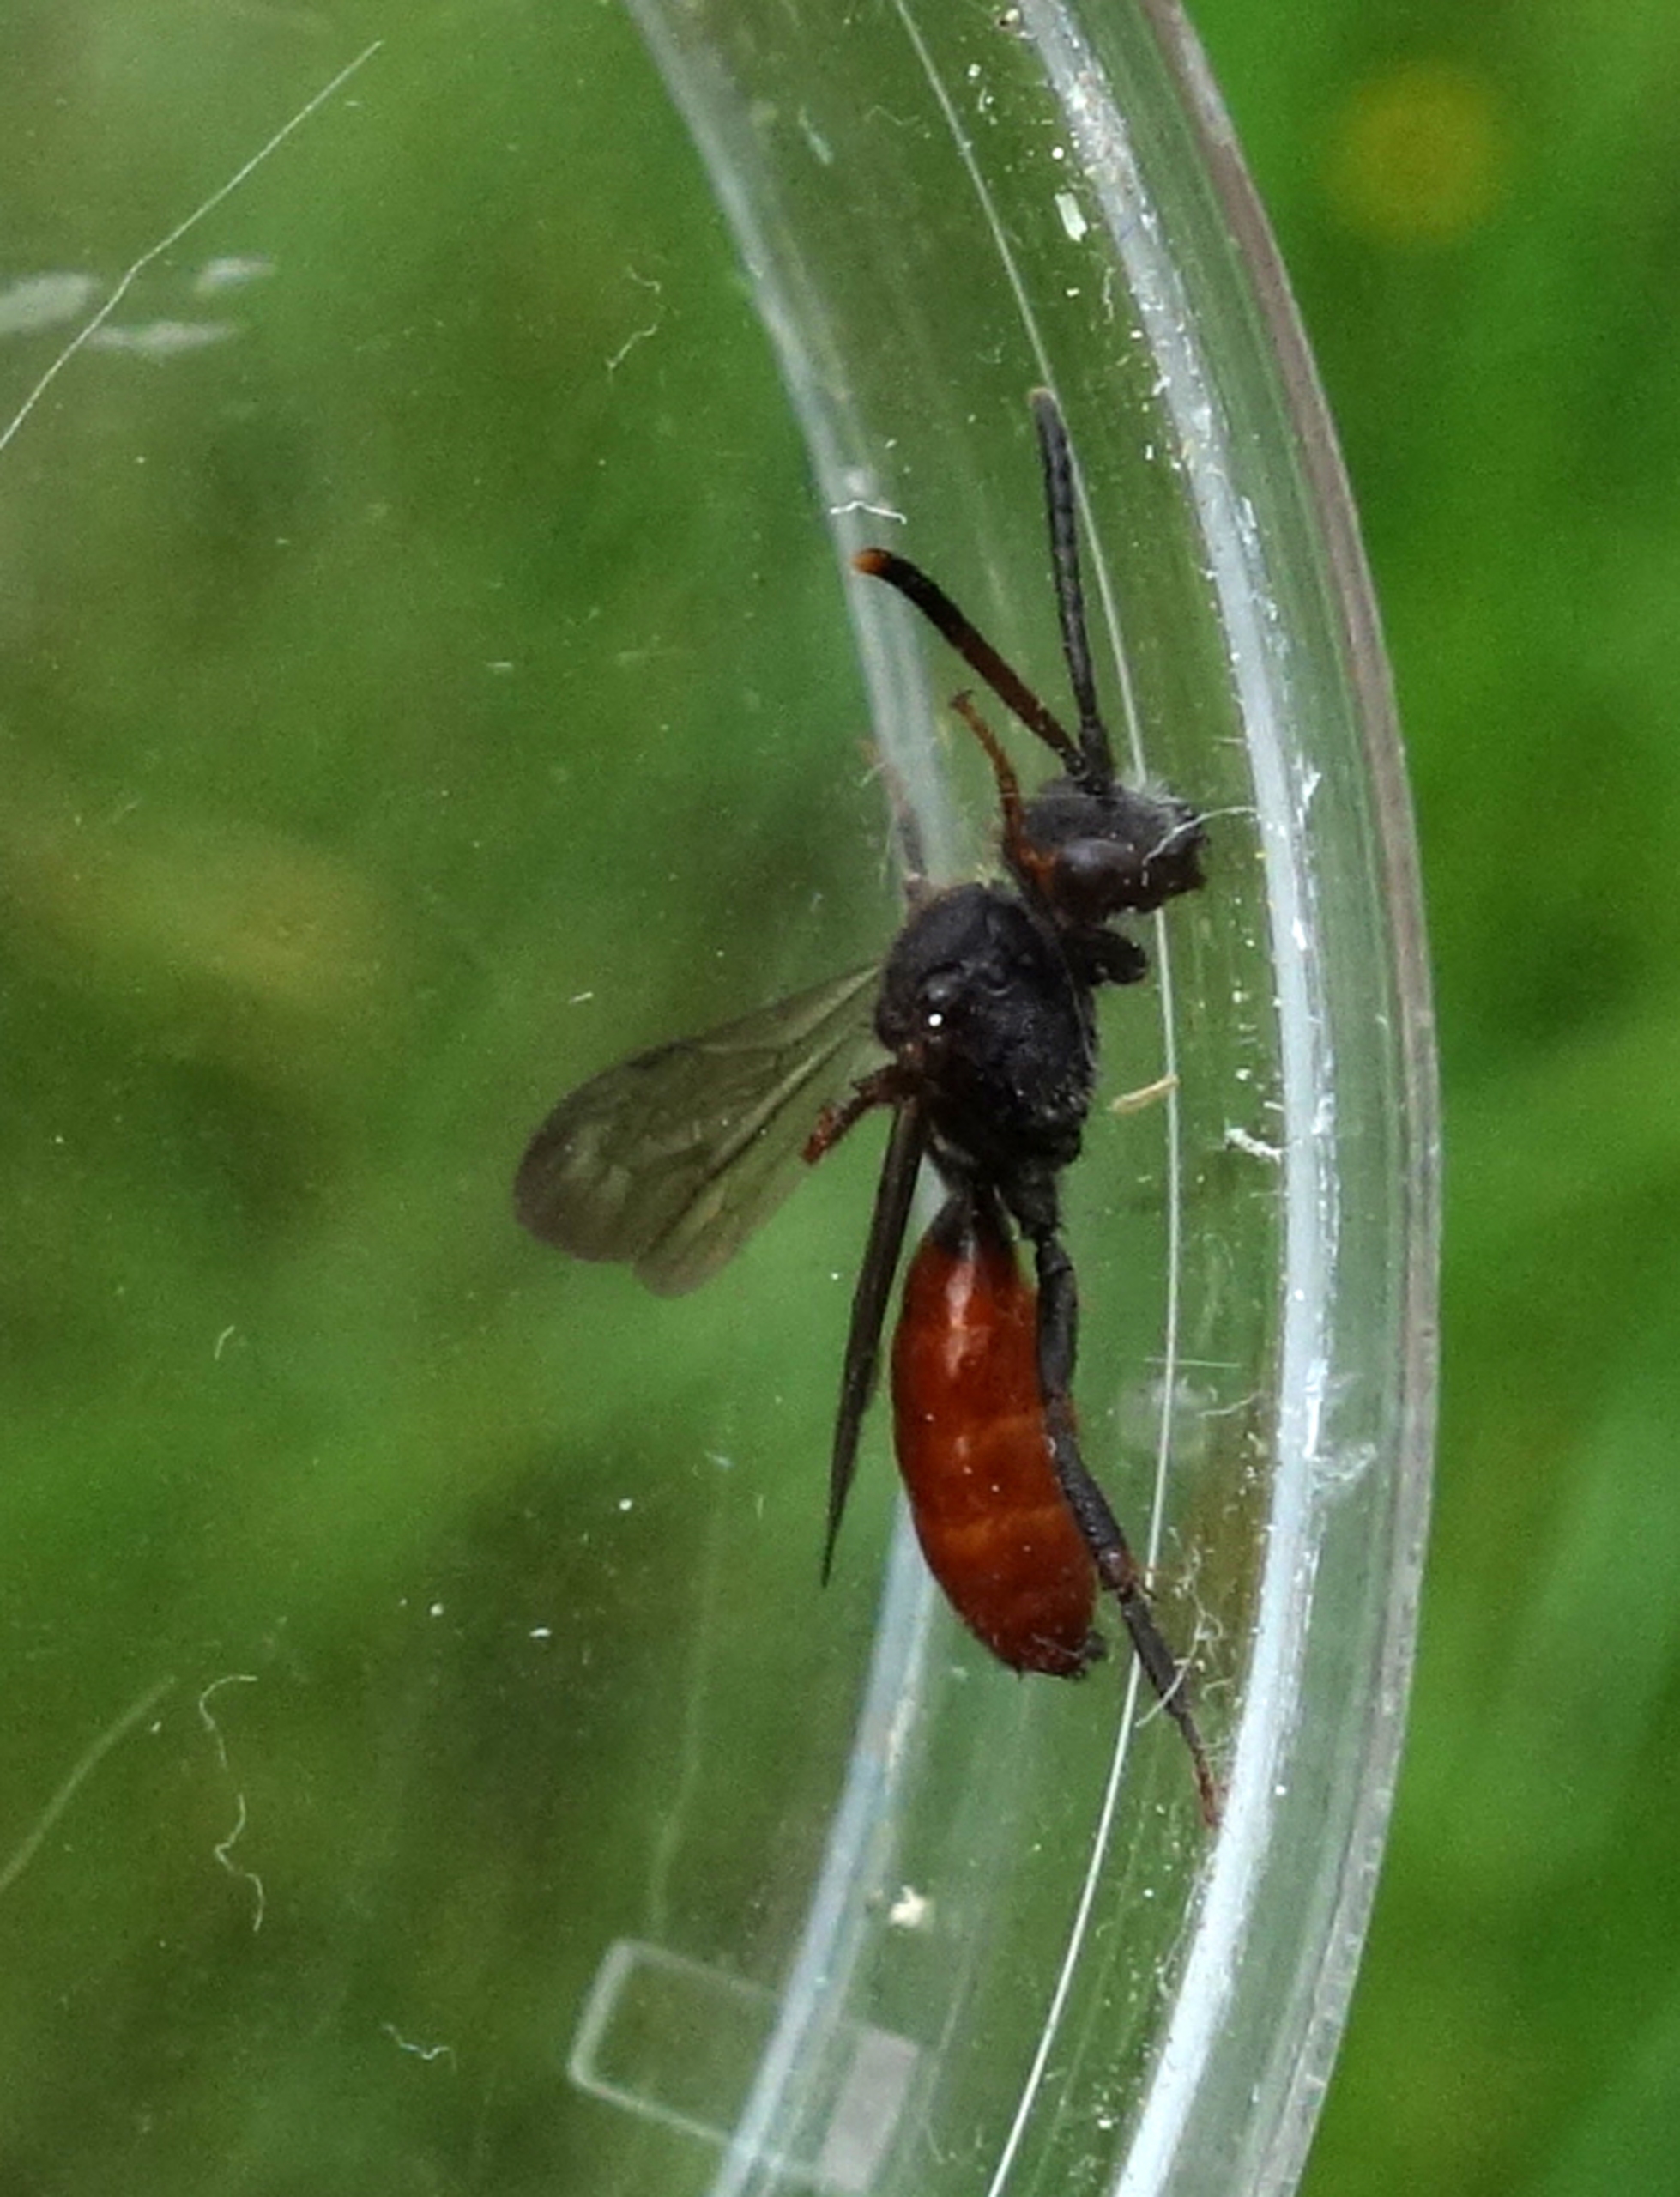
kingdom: Animalia
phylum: Arthropoda
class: Insecta
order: Hymenoptera
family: Halictidae
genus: Sphecodes
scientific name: Sphecodes
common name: Blodbier
